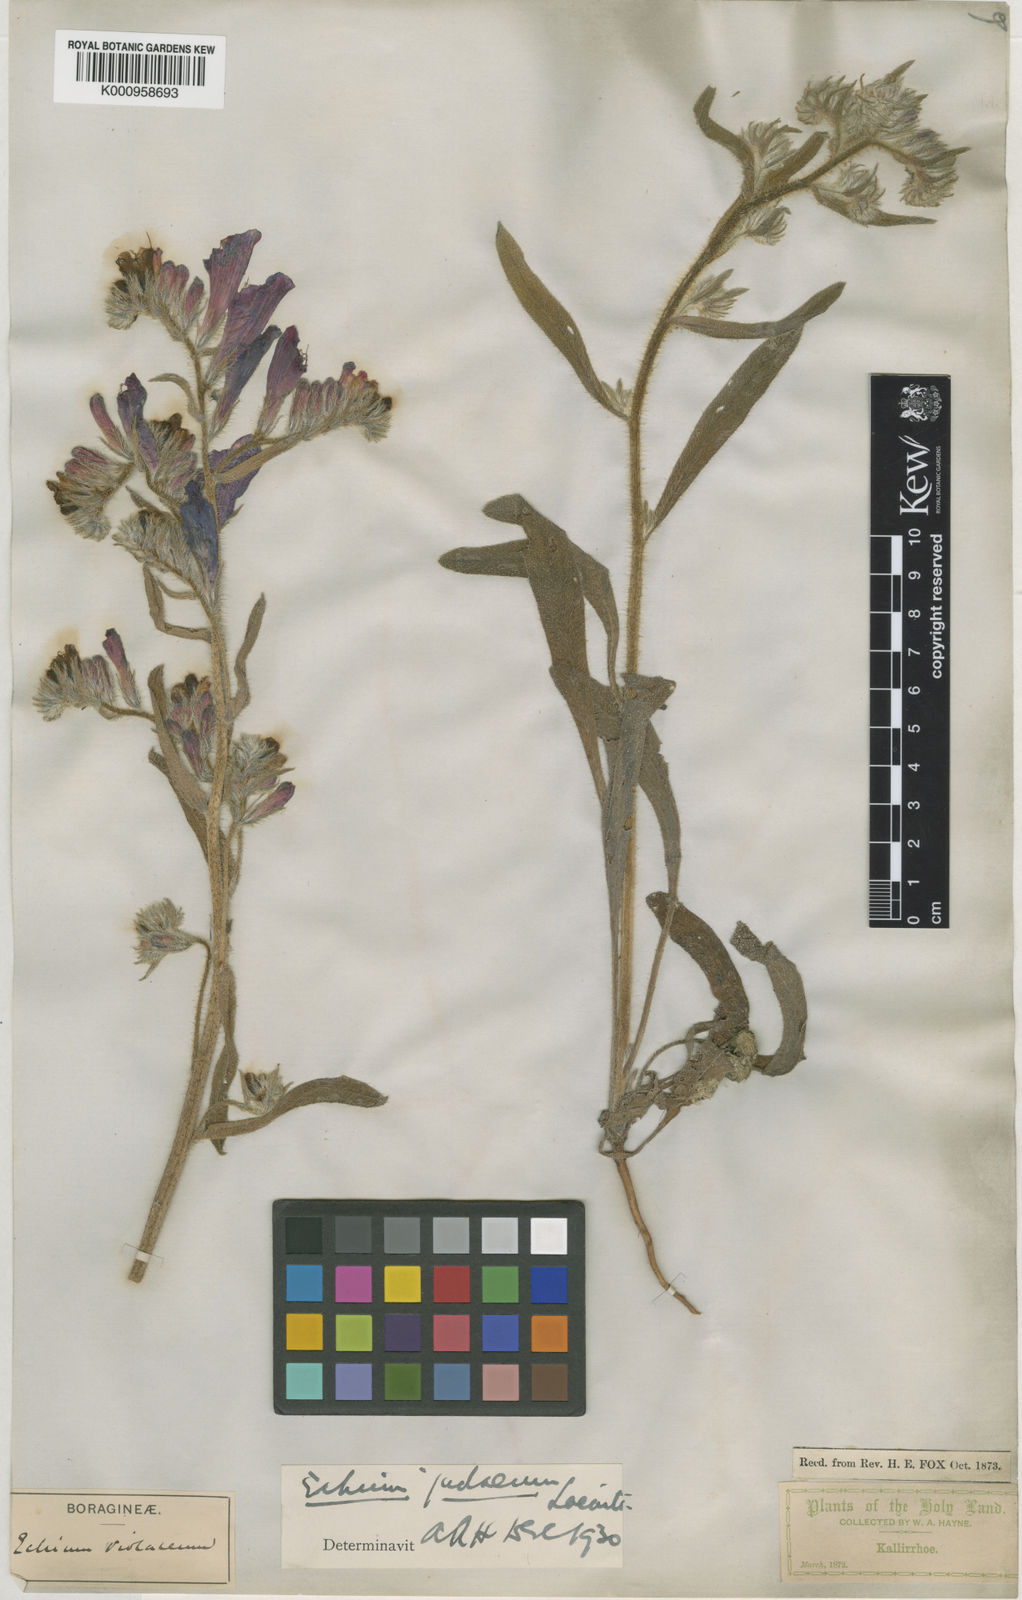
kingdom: Plantae
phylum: Tracheophyta
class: Magnoliopsida
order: Boraginales
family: Boraginaceae
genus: Echium
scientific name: Echium judaeum
